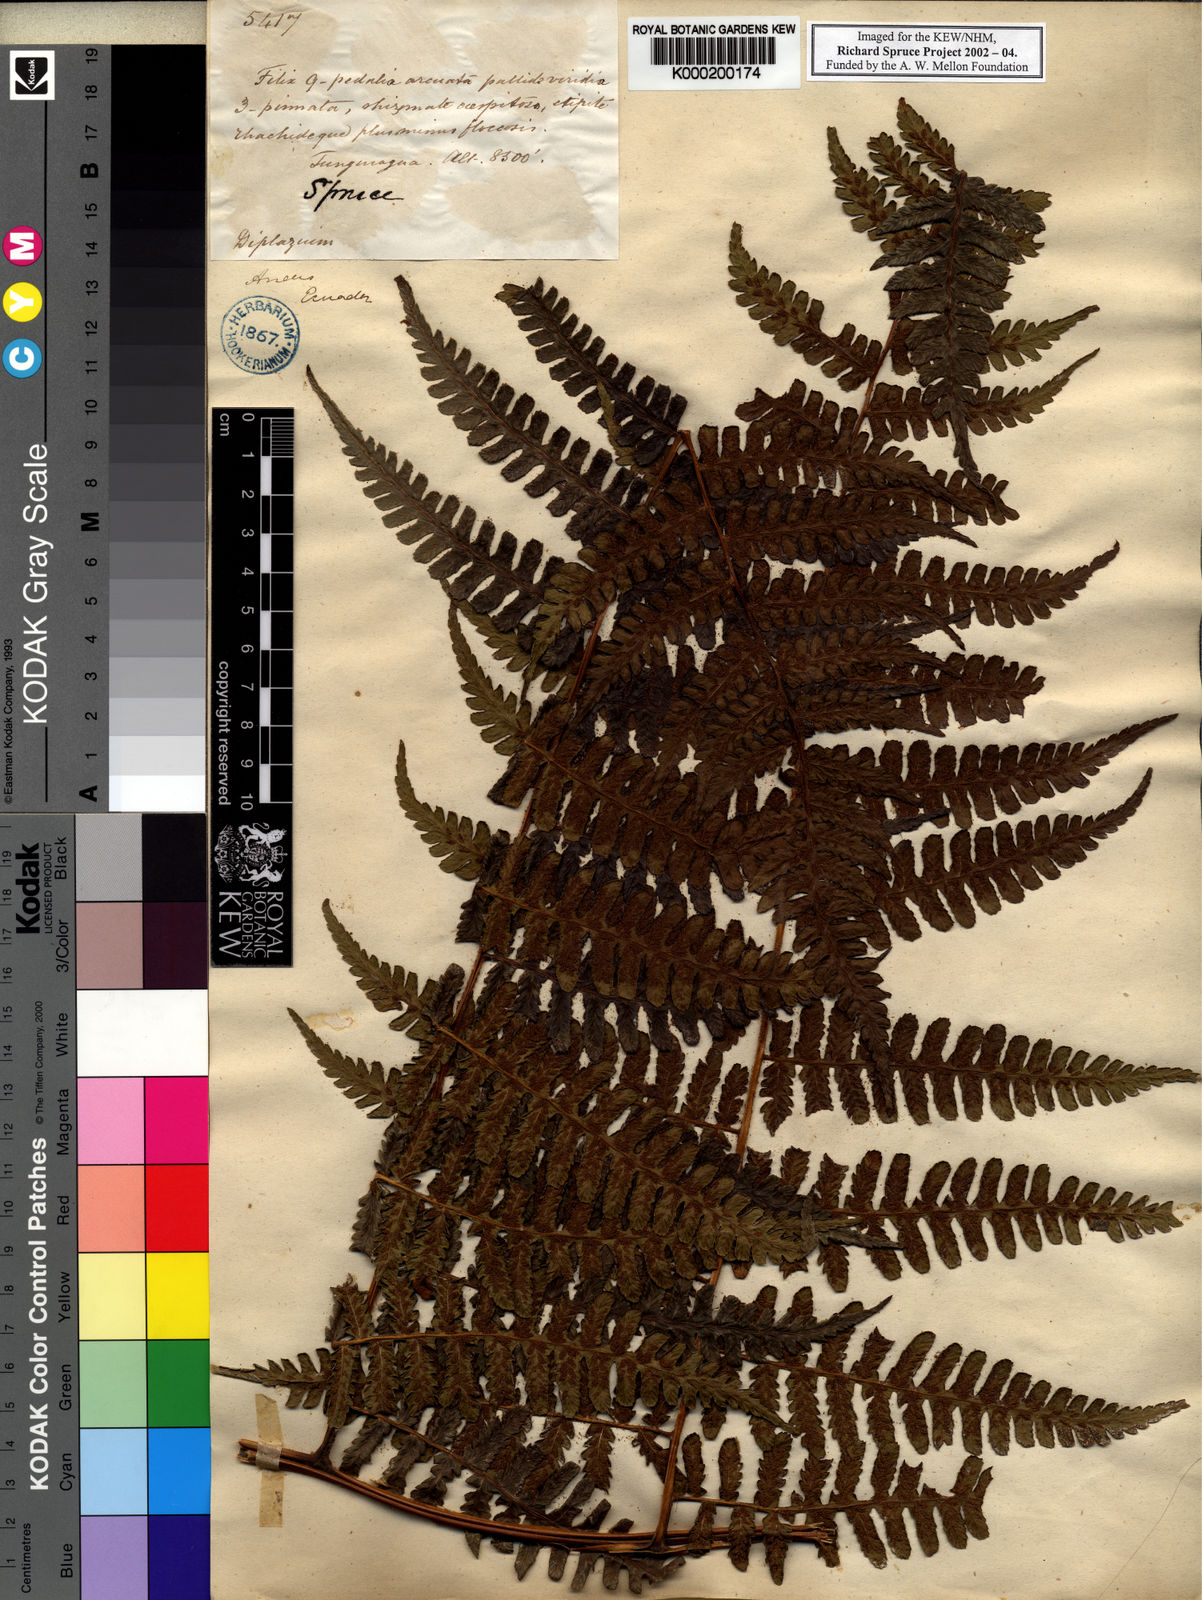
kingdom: Plantae
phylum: Tracheophyta
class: Polypodiopsida
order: Polypodiales
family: Athyriaceae
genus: Diplazium
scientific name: Diplazium
